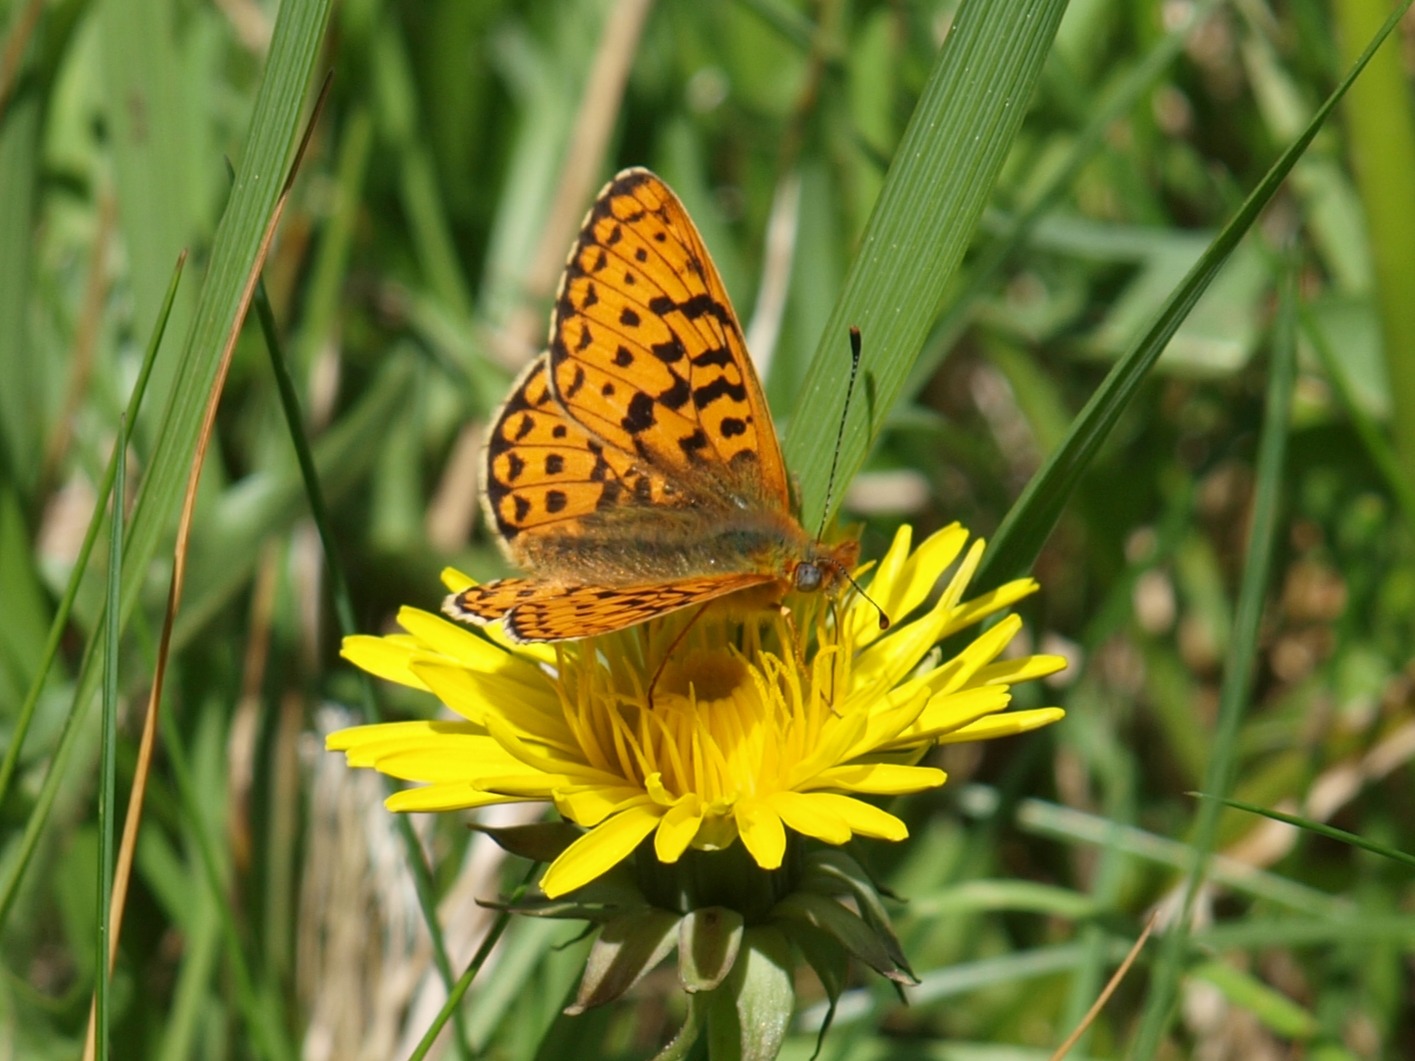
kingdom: Animalia
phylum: Arthropoda
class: Insecta
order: Lepidoptera
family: Nymphalidae
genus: Clossiana
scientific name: Clossiana euphrosyne
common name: Rødlig perlemorsommerfugl
